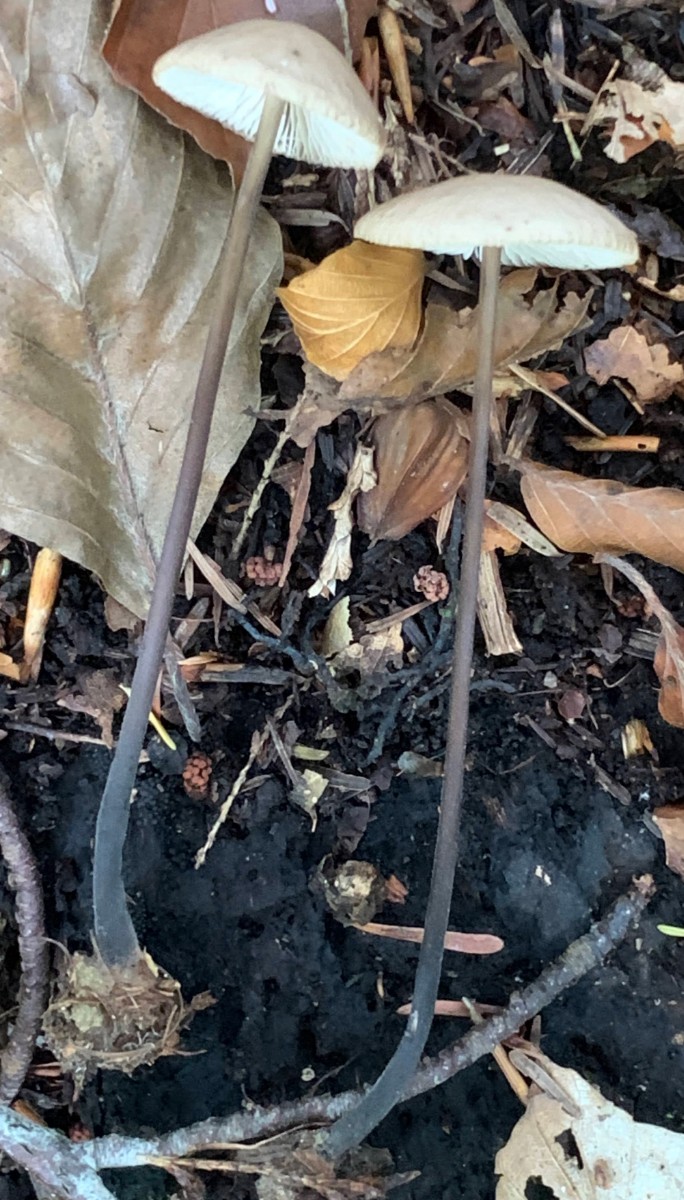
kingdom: Fungi
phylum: Basidiomycota
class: Agaricomycetes
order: Agaricales
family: Omphalotaceae
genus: Mycetinis
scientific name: Mycetinis alliaceus
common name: stor løghat
